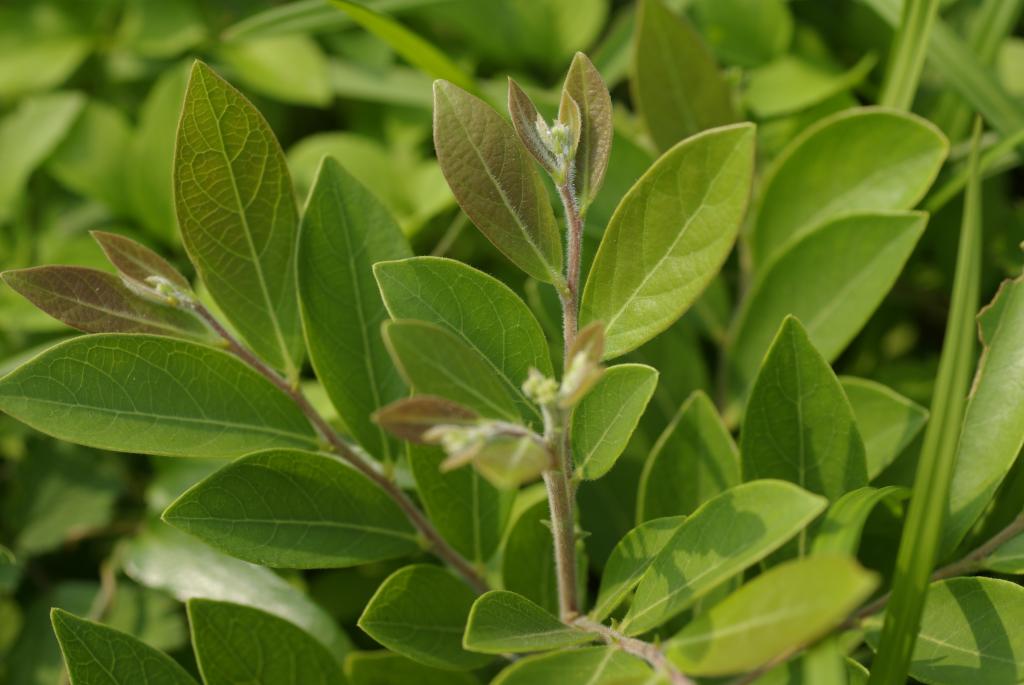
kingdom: Plantae
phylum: Tracheophyta
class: Magnoliopsida
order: Malpighiales
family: Phyllanthaceae
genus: Glochidion
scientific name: Glochidion puberum
